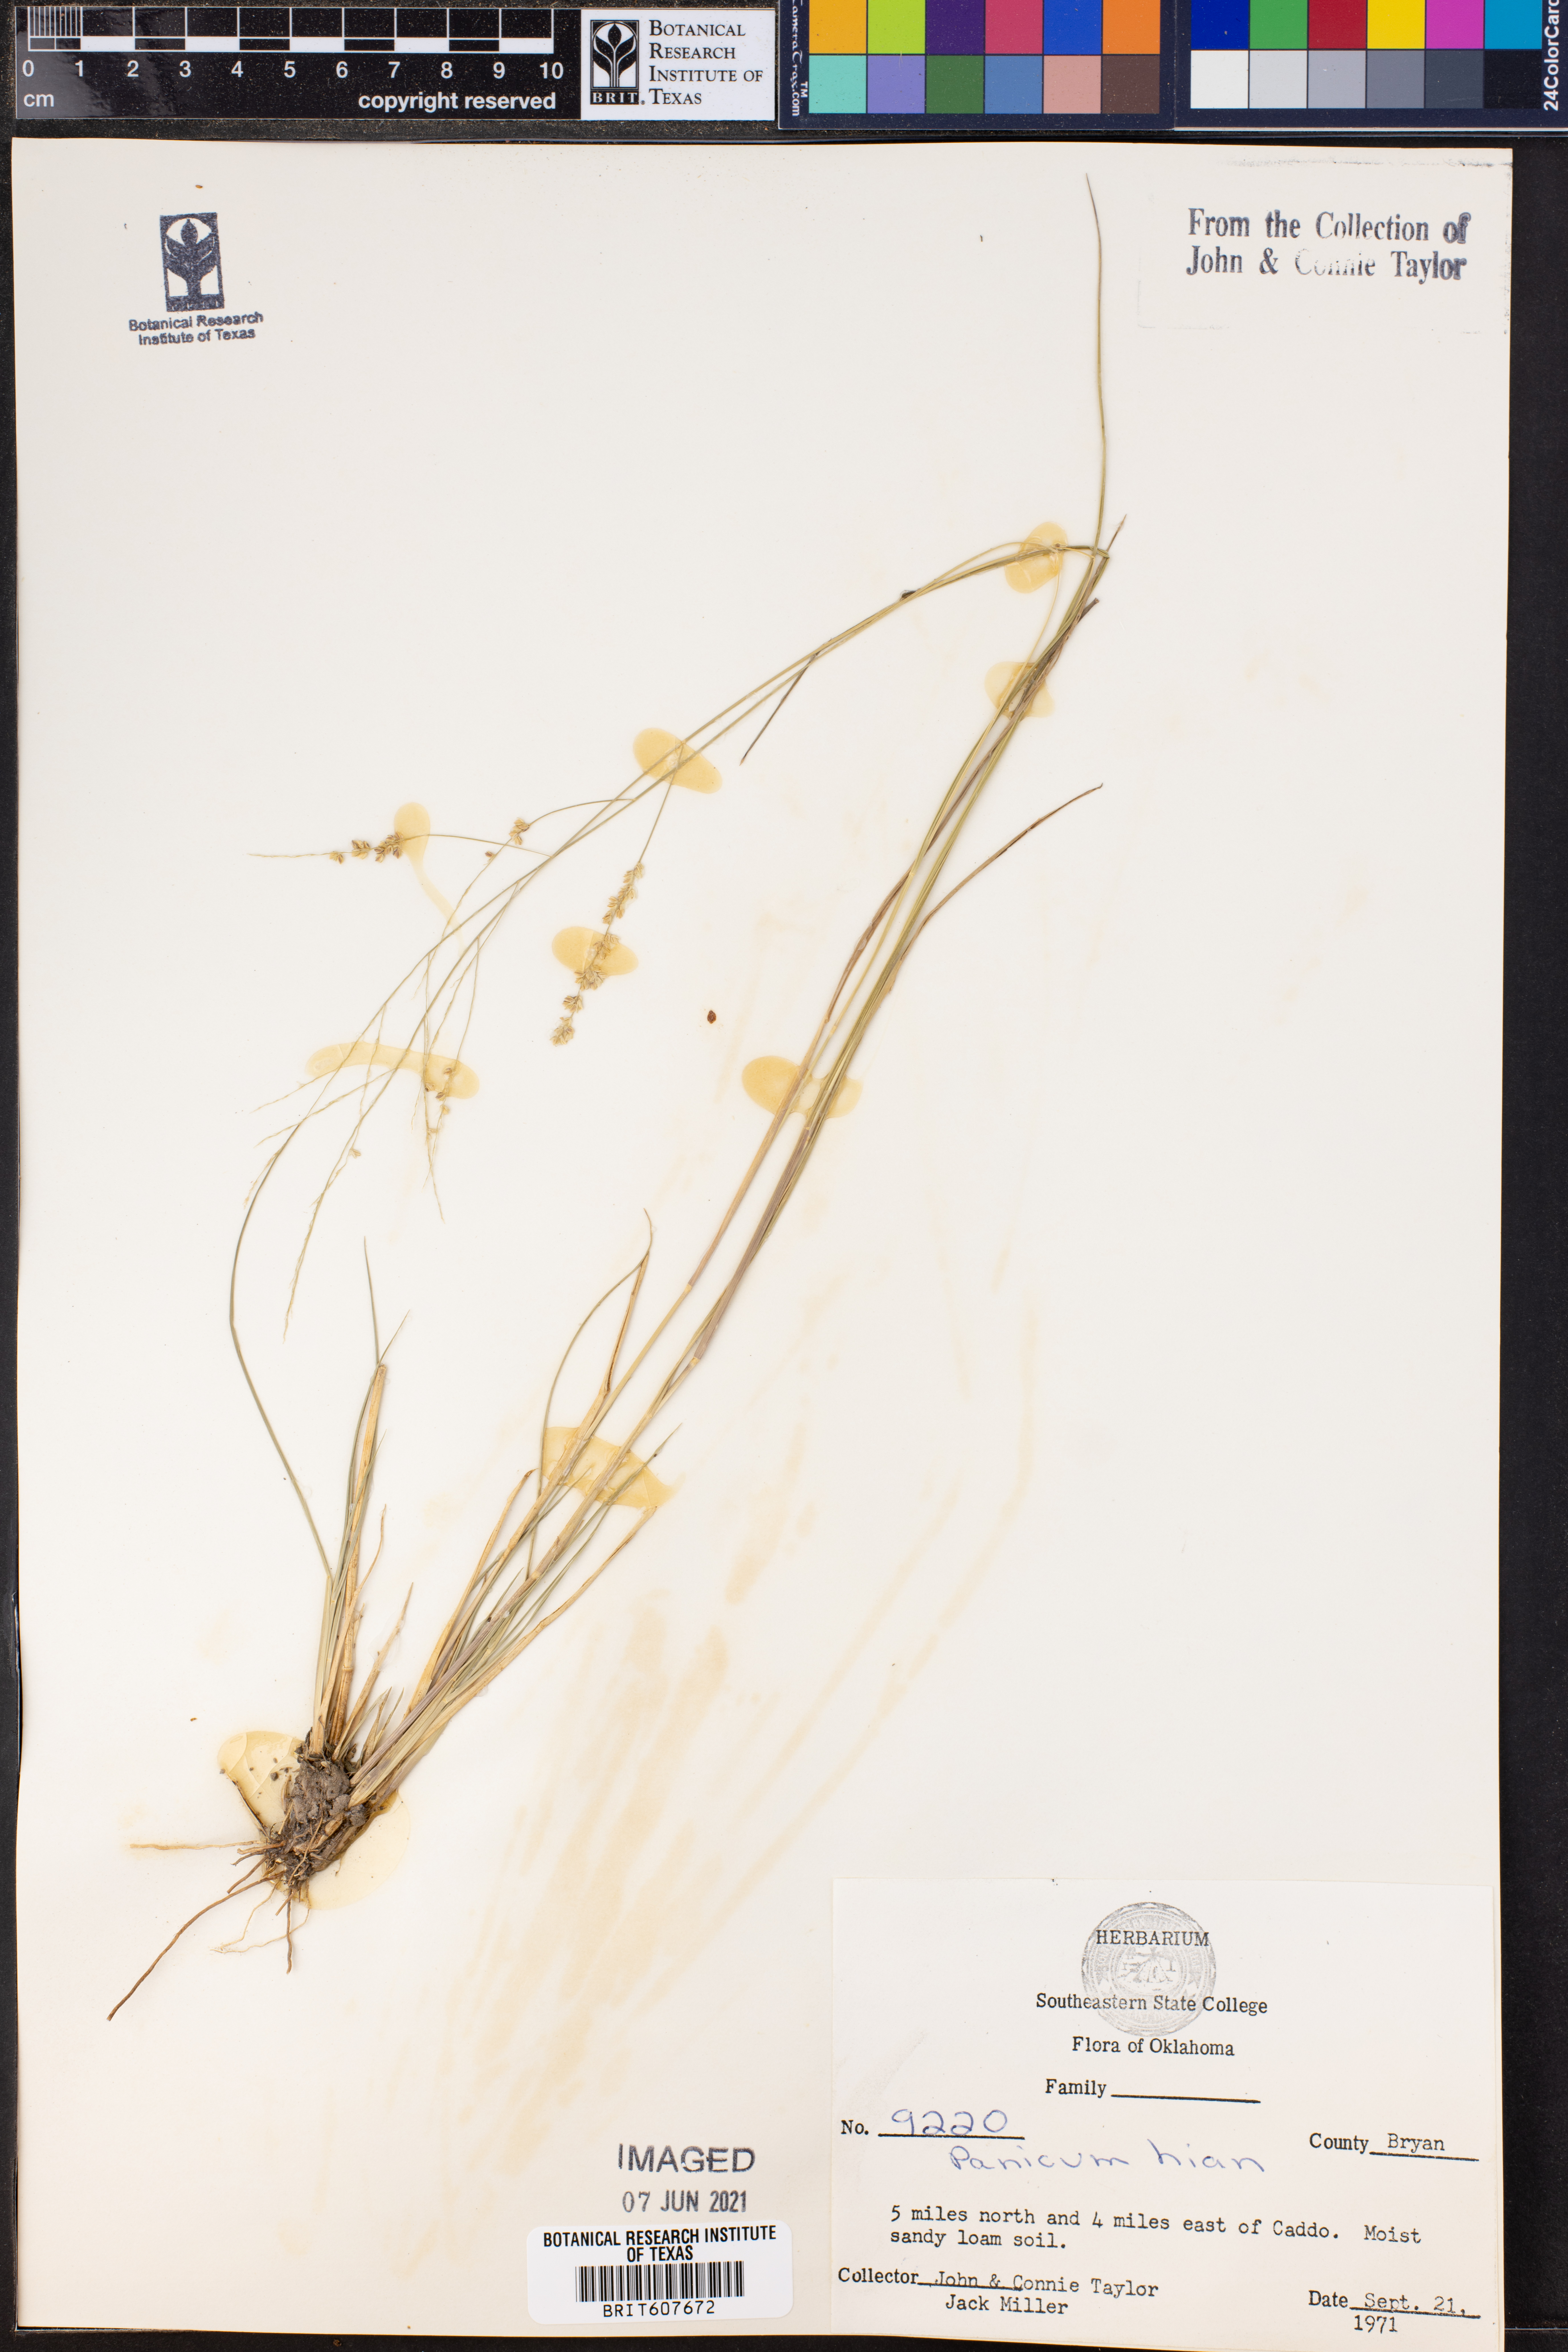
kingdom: Plantae
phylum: Tracheophyta
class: Liliopsida
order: Poales
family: Poaceae
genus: Coleataenia
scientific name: Coleataenia stenodes
